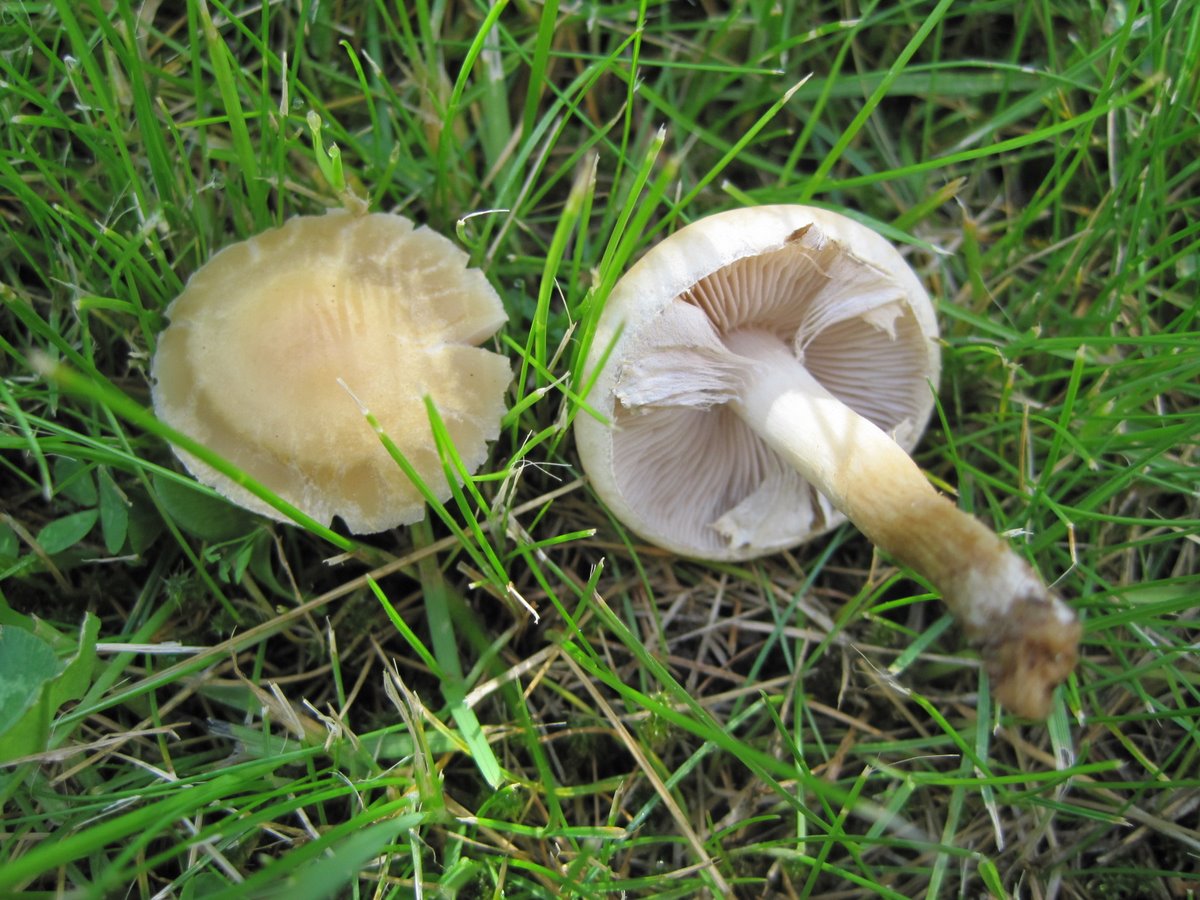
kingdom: Fungi
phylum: Basidiomycota
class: Agaricomycetes
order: Agaricales
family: Strophariaceae
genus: Agrocybe
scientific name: Agrocybe praecox
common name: tidlig agerhat
